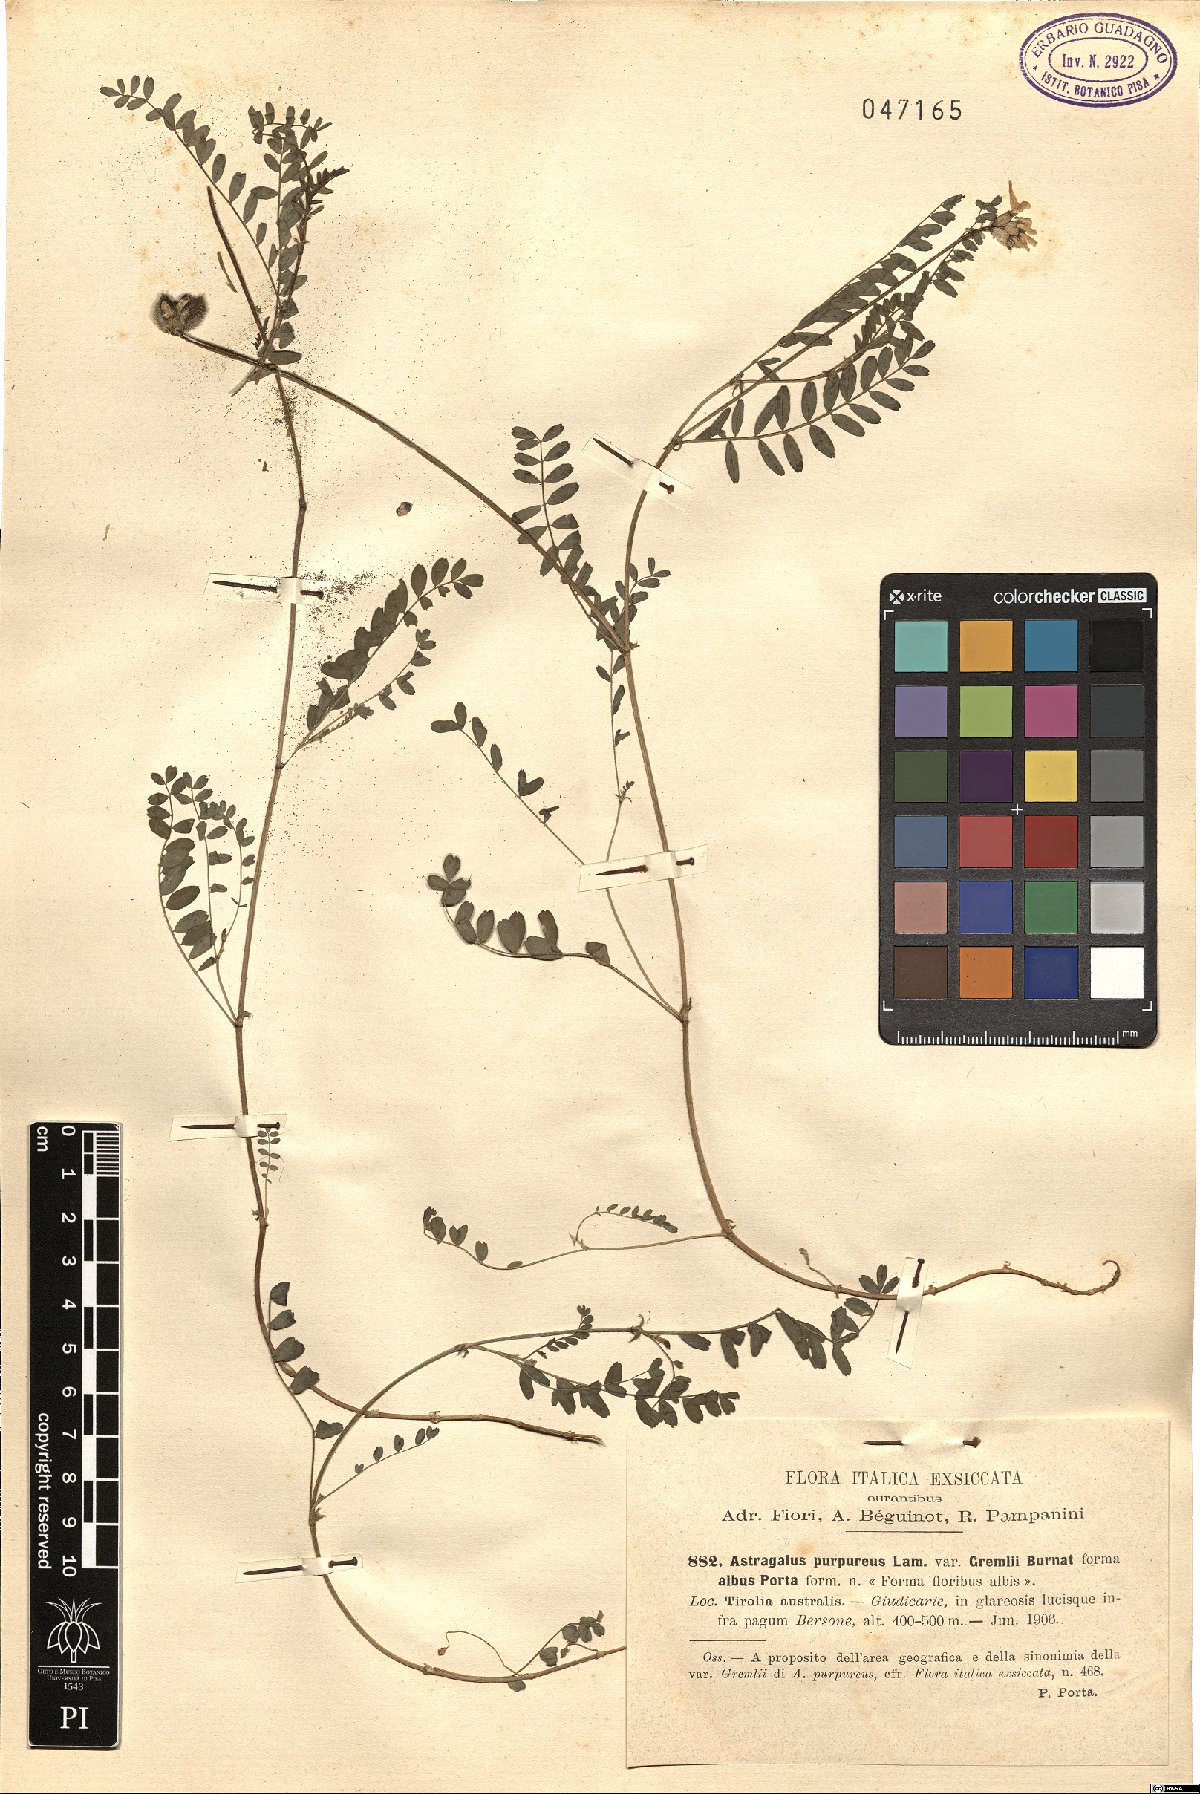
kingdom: Plantae
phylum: Tracheophyta
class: Magnoliopsida
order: Fabales
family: Fabaceae
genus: Astragalus
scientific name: Astragalus hypoglottis
